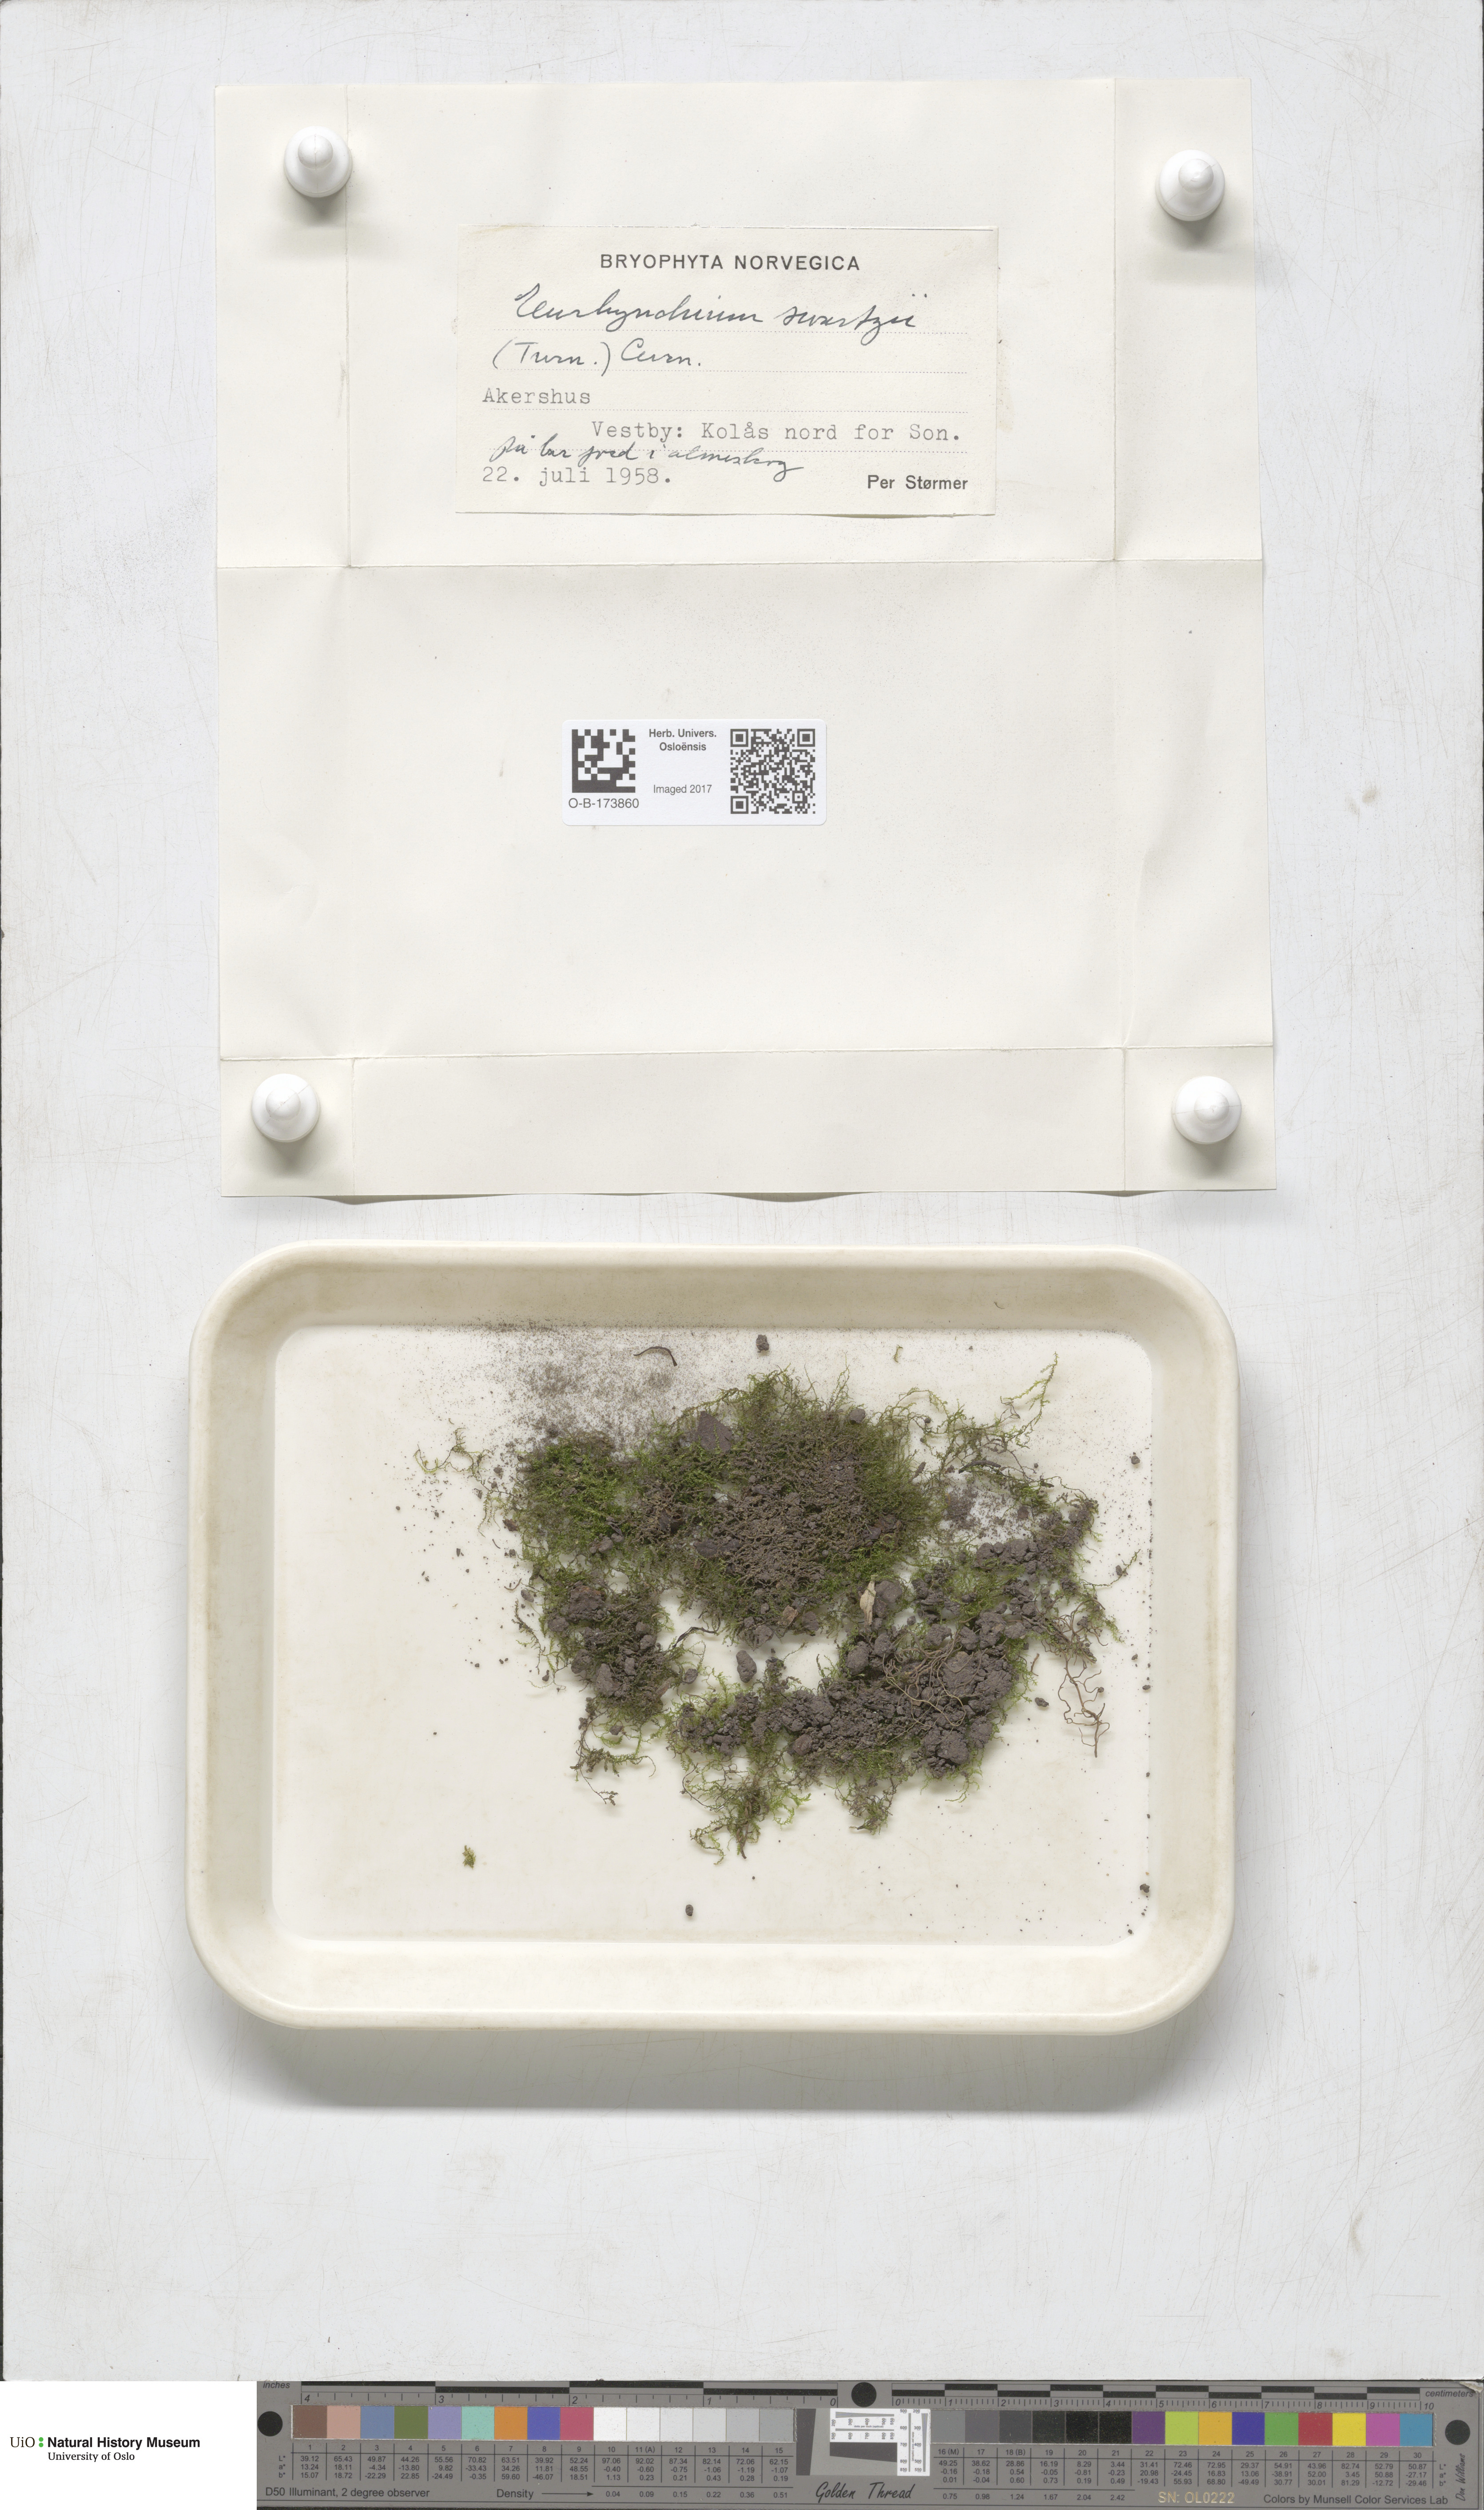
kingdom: Plantae
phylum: Bryophyta
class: Bryopsida
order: Hypnales
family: Brachytheciaceae
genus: Oxyrrhynchium
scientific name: Oxyrrhynchium hians
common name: Spreading beaked moss
